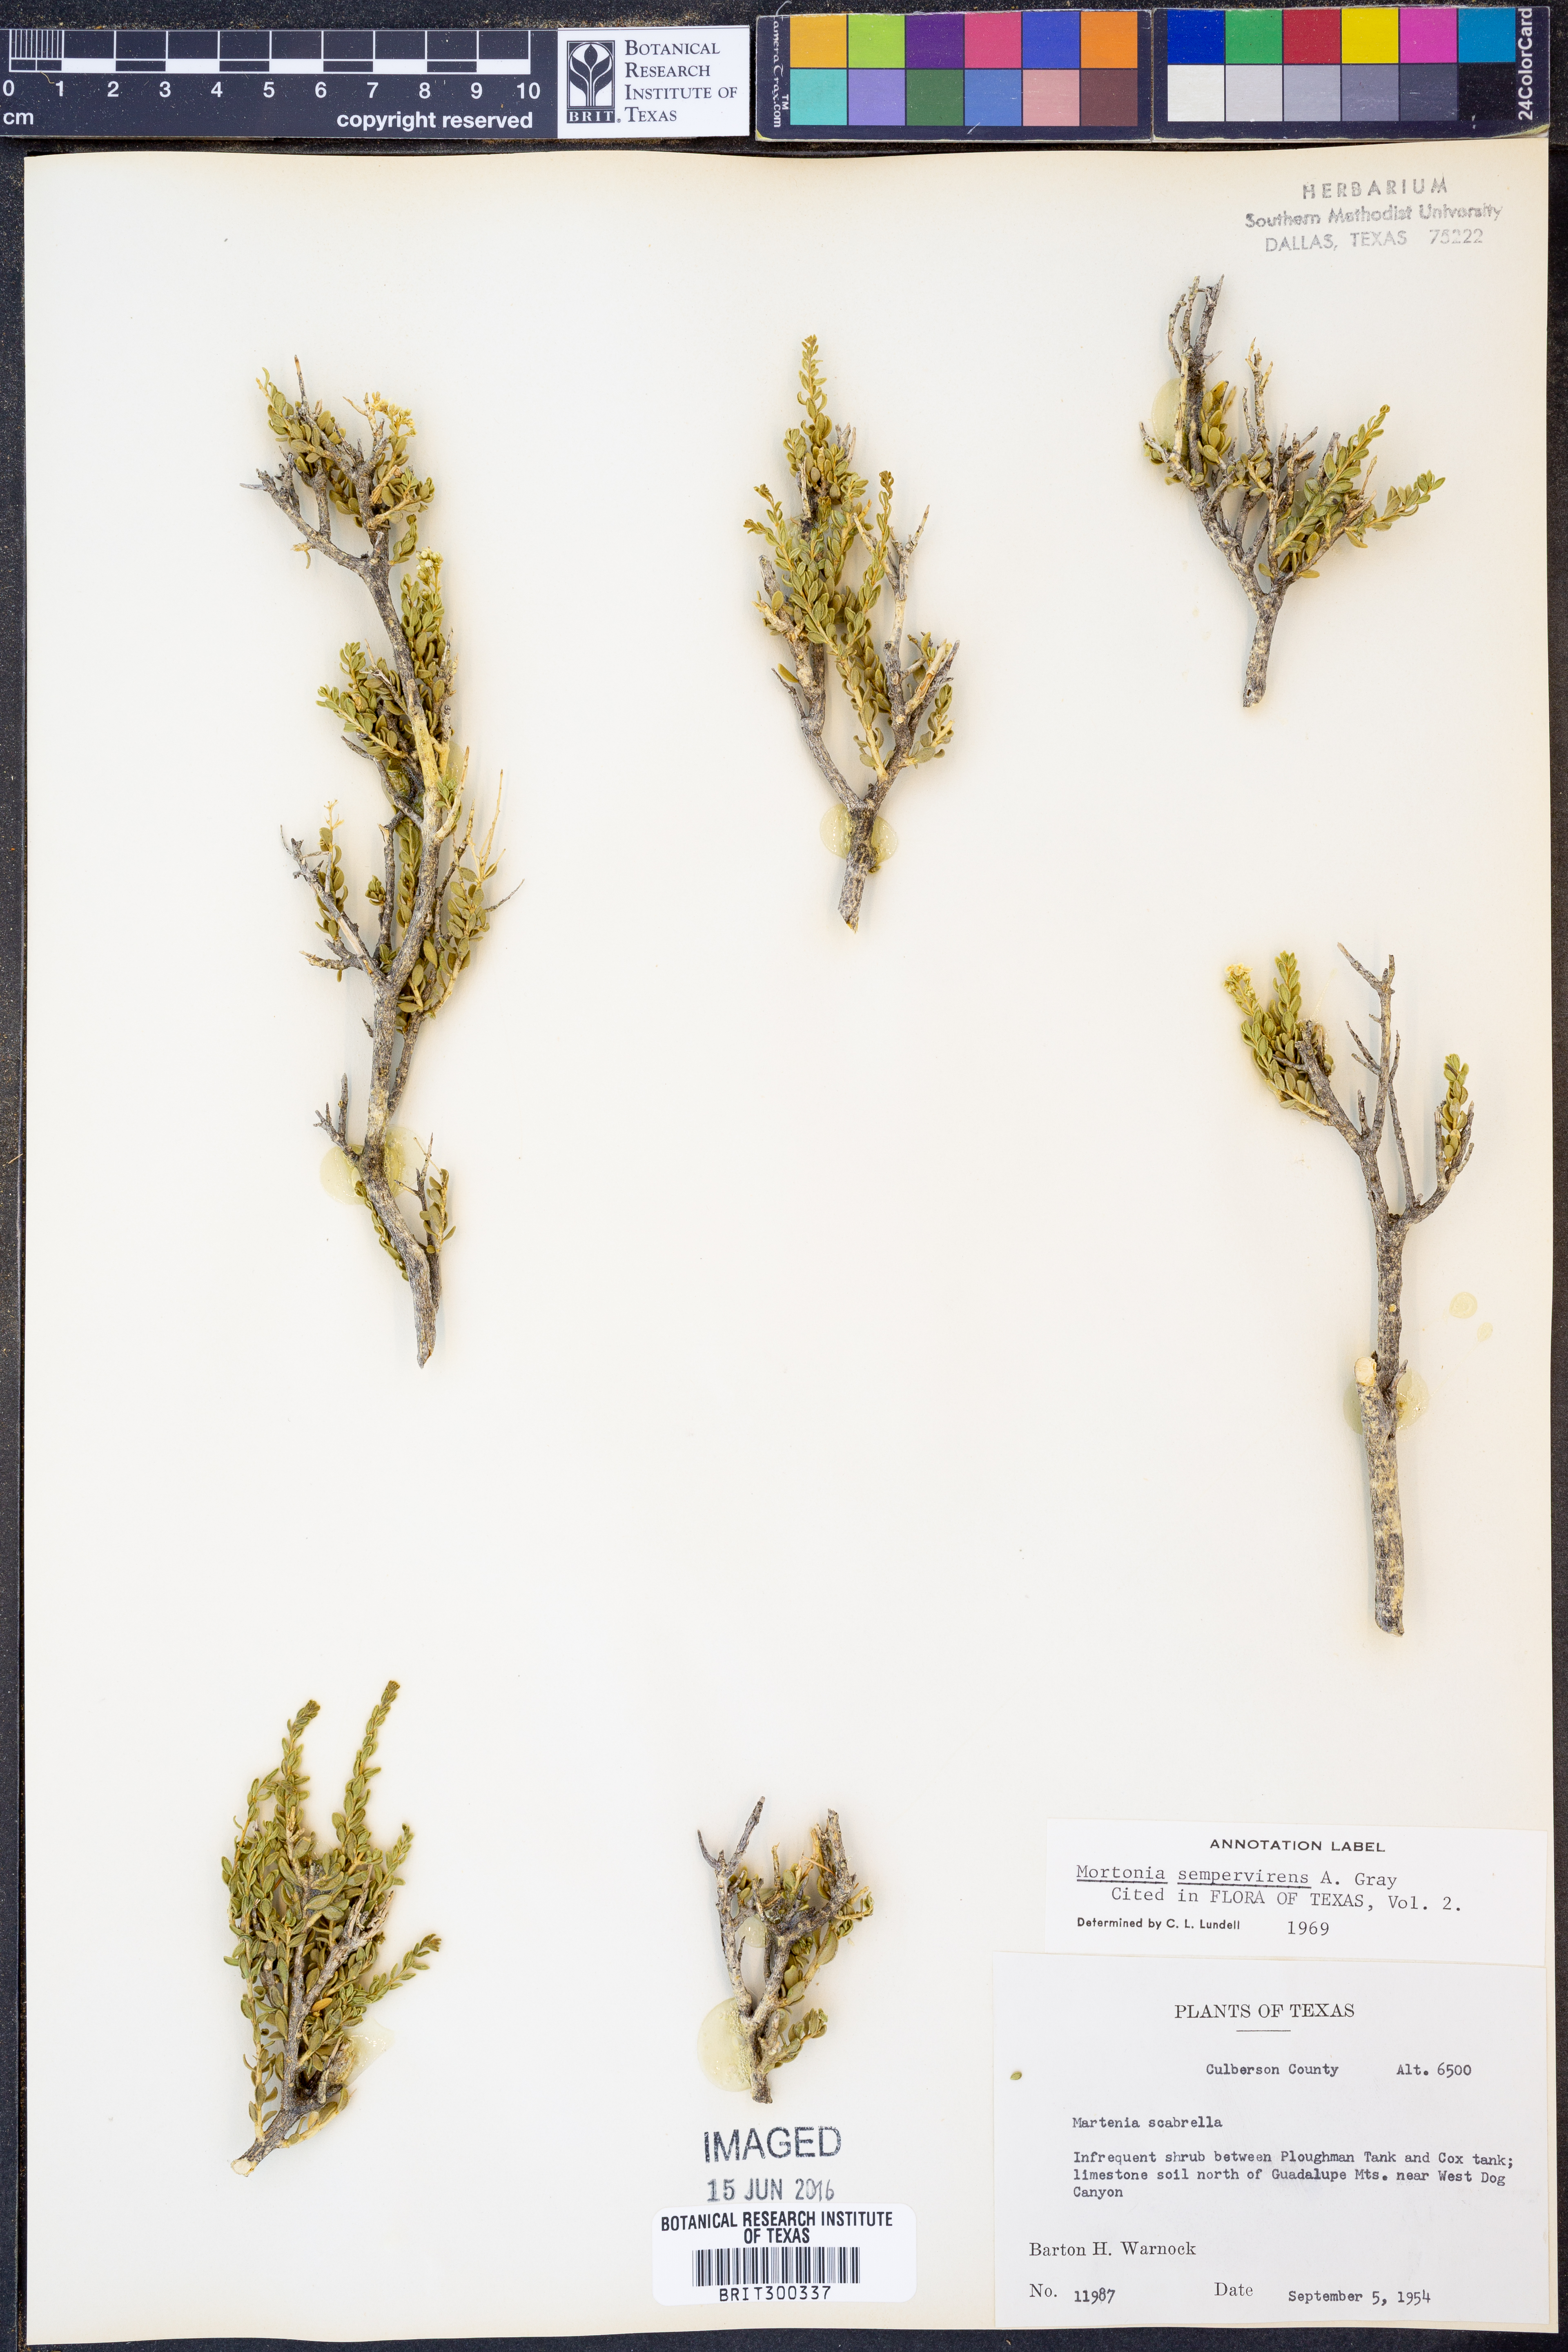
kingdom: Plantae
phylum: Tracheophyta
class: Magnoliopsida
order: Celastrales
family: Celastraceae
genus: Mortonia
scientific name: Mortonia sempervirens
